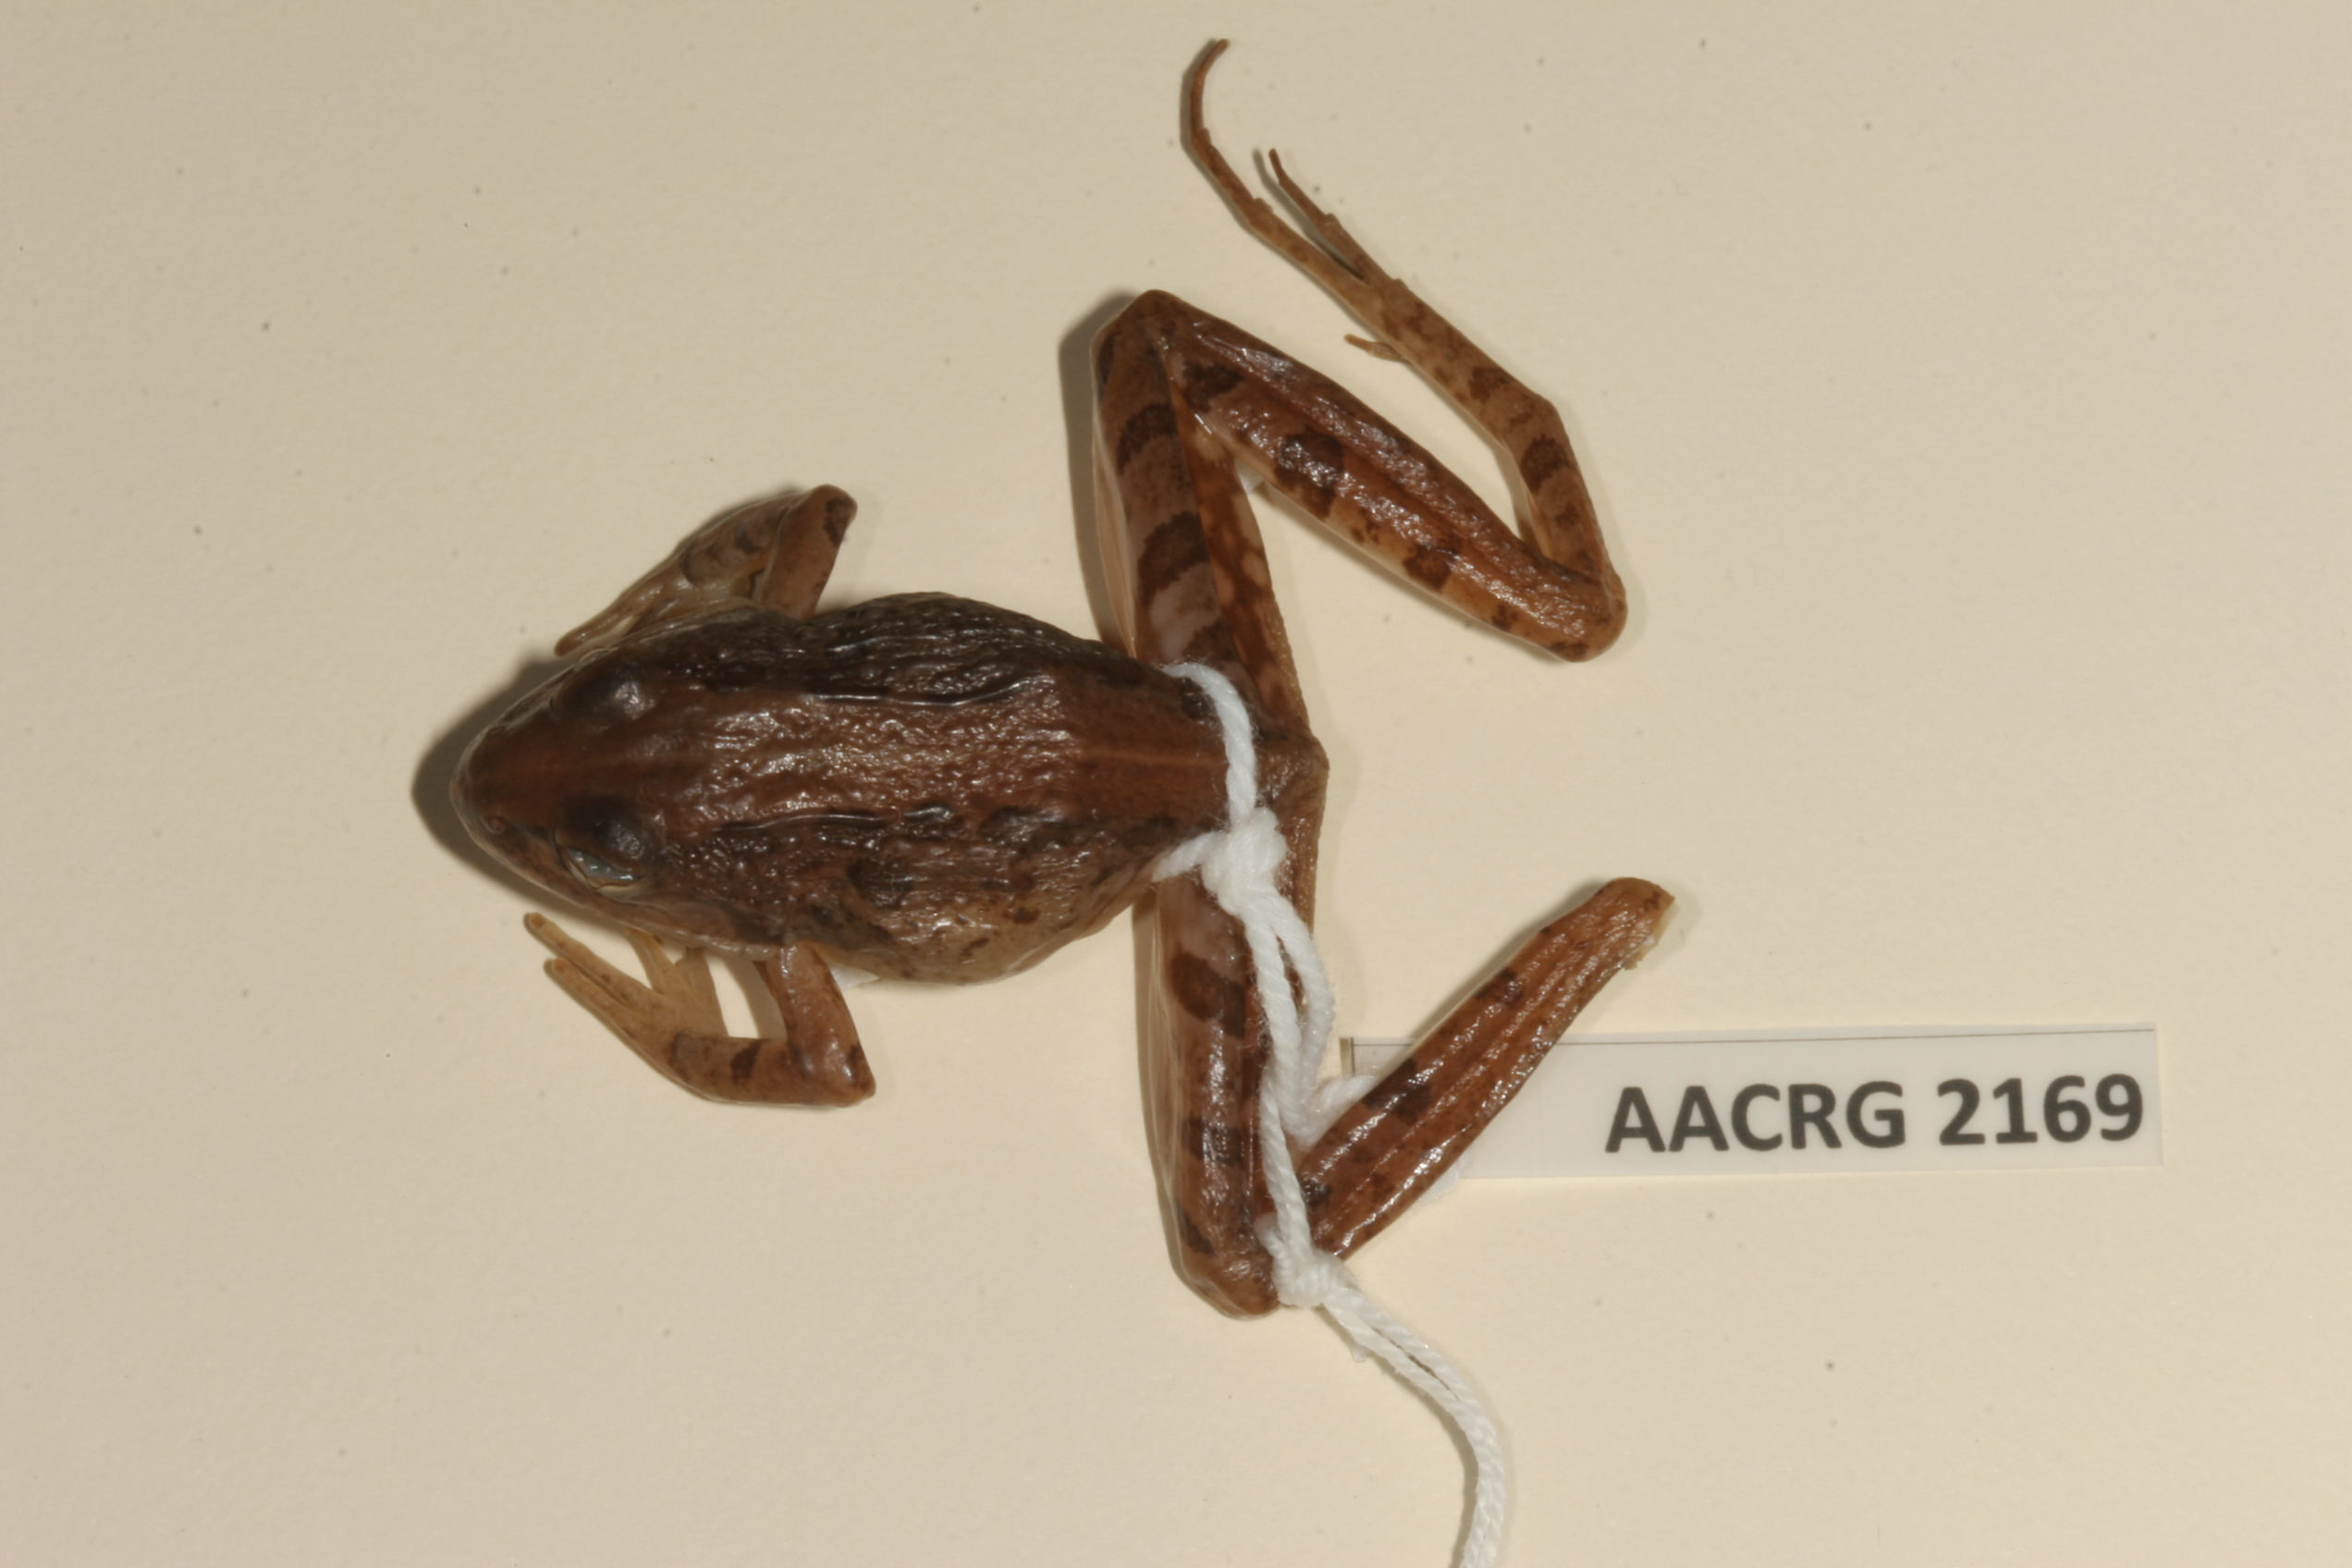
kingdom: Animalia
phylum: Chordata
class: Amphibia
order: Anura
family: Pyxicephalidae
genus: Strongylopus
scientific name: Strongylopus grayii
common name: Gray's stream frog
